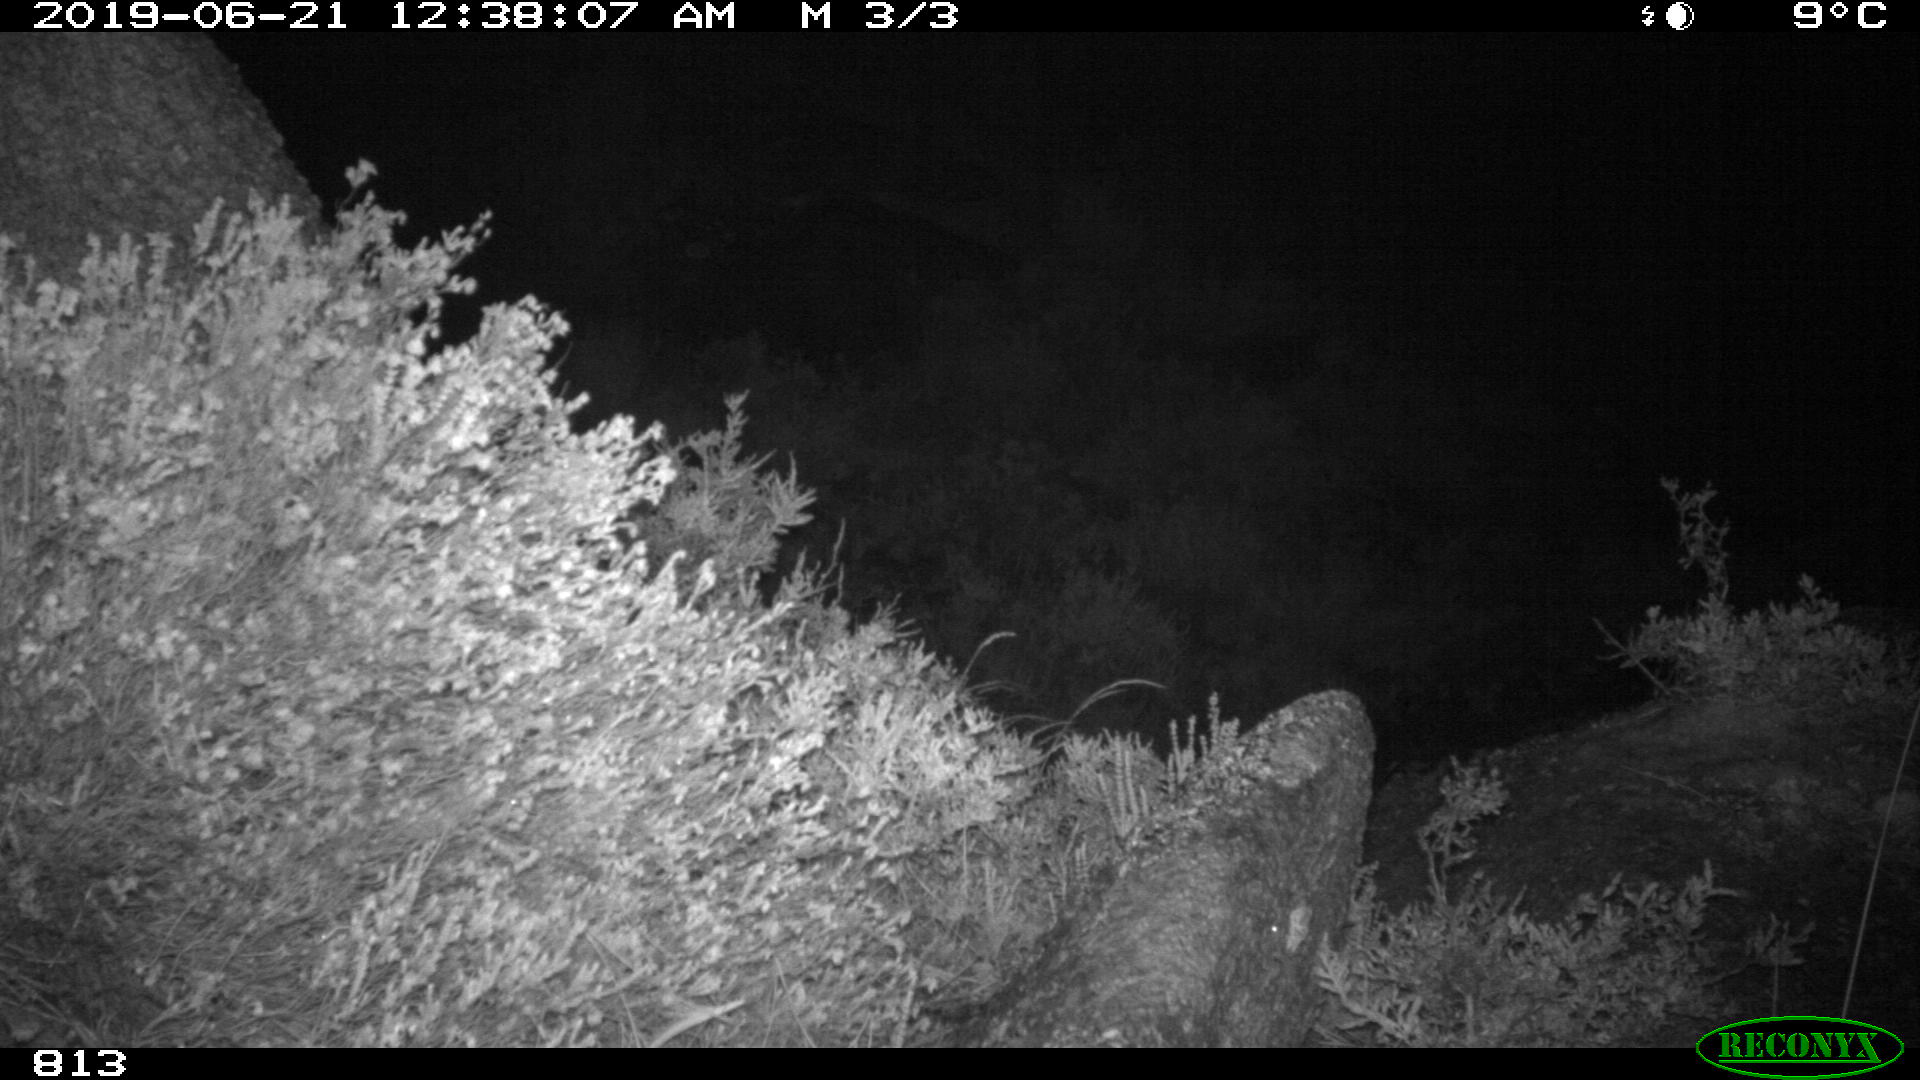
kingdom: Animalia
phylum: Chordata
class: Mammalia
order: Carnivora
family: Canidae
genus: Canis
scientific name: Canis lupus
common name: Gray wolf
